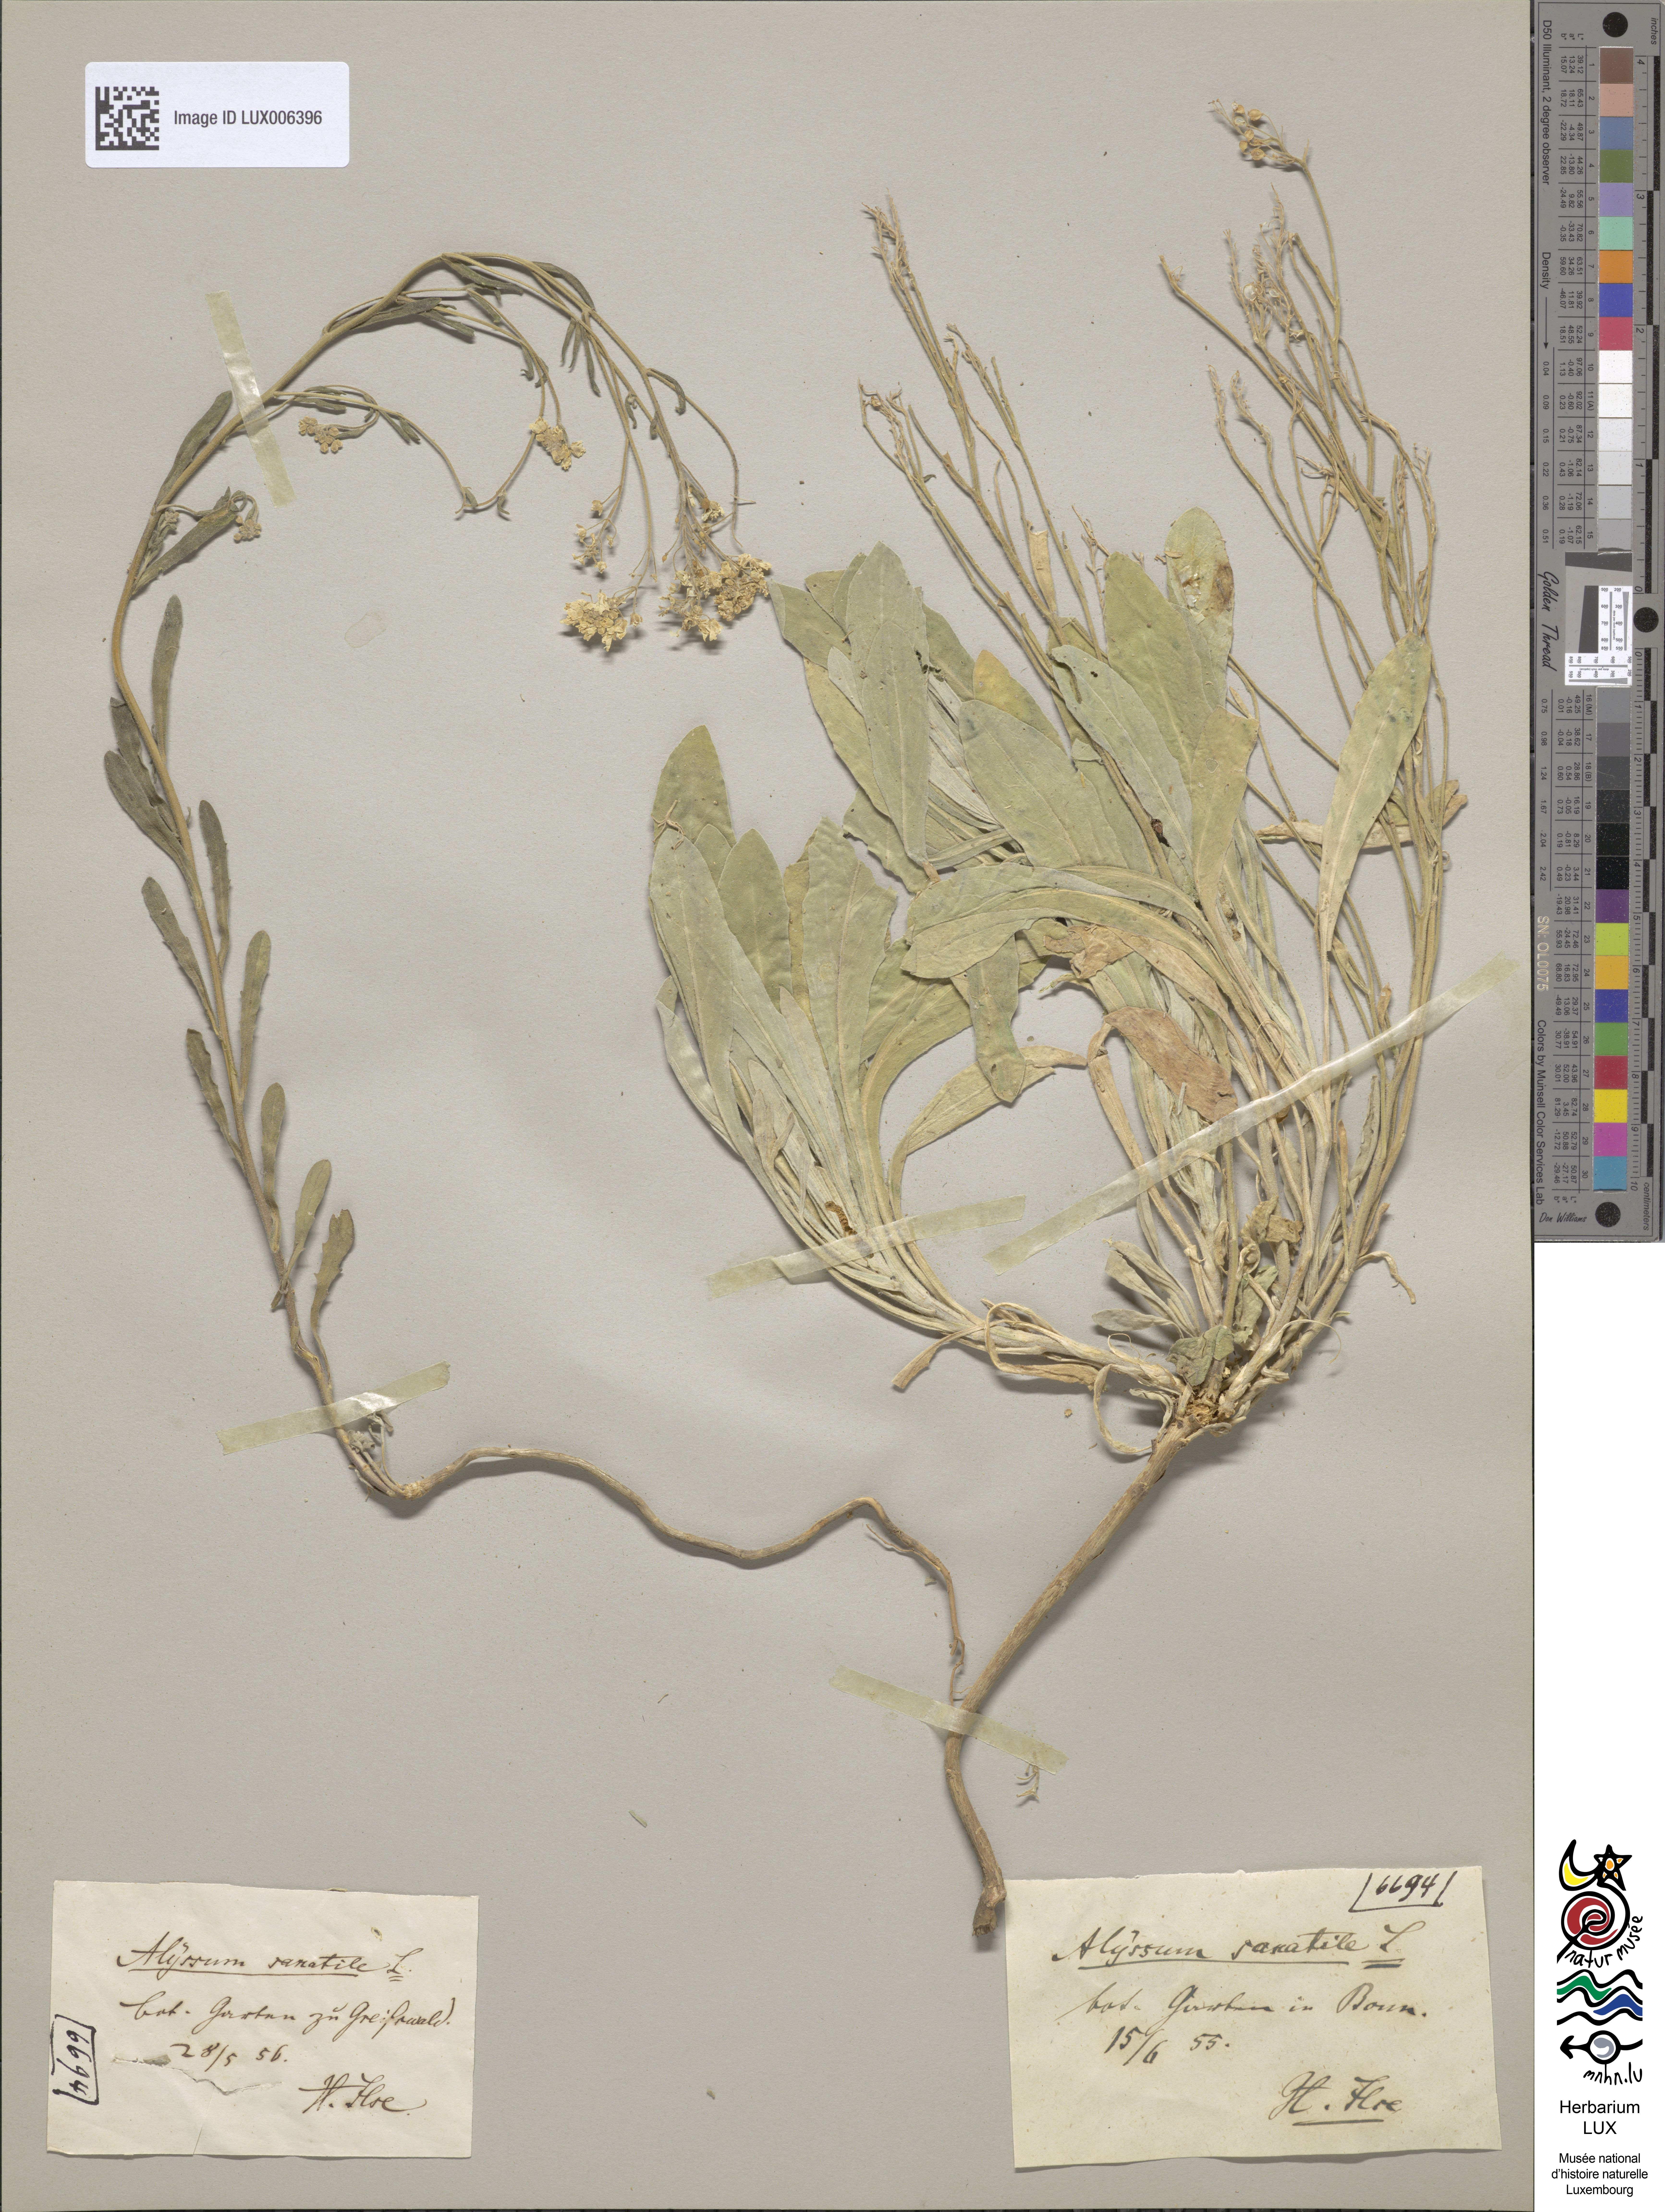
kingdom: Plantae
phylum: Tracheophyta
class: Magnoliopsida
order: Brassicales
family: Brassicaceae
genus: Aurinia
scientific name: Aurinia saxatilis
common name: Golden-tuft alyssum
